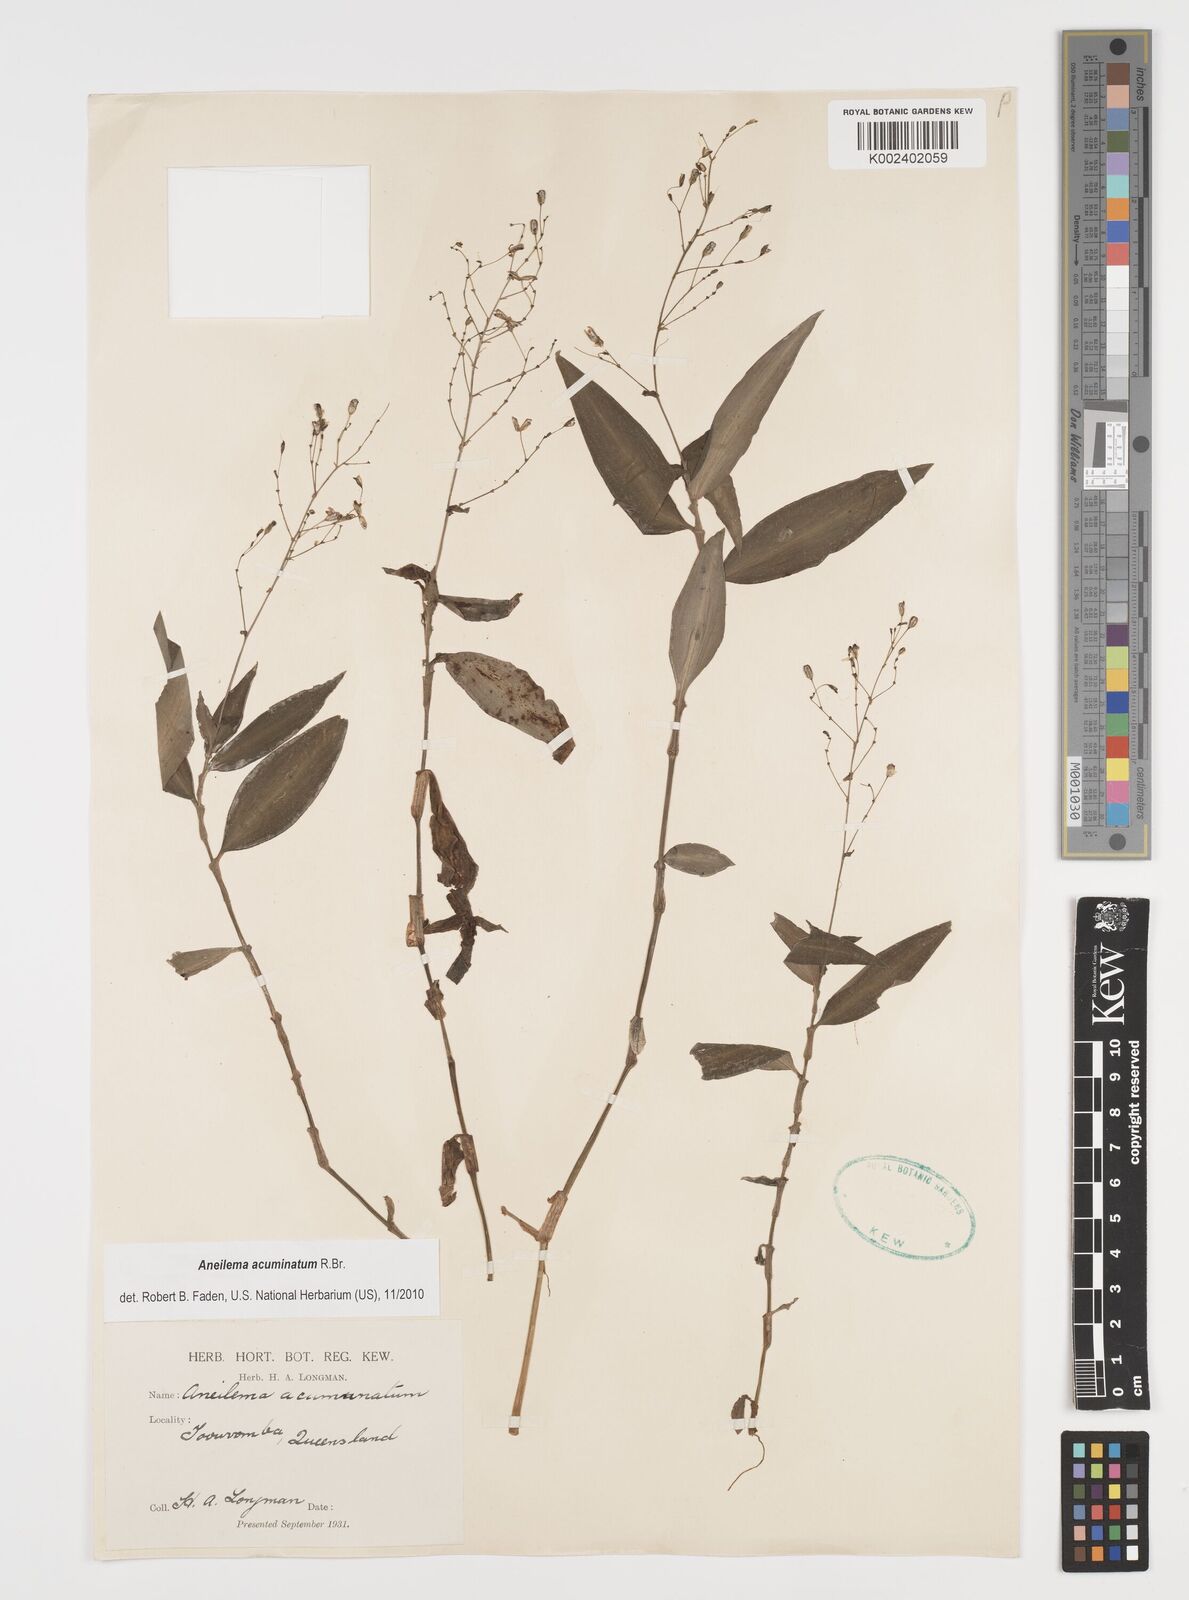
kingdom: Plantae
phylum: Tracheophyta
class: Liliopsida
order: Commelinales
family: Commelinaceae
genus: Aneilema
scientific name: Aneilema acuminatum
